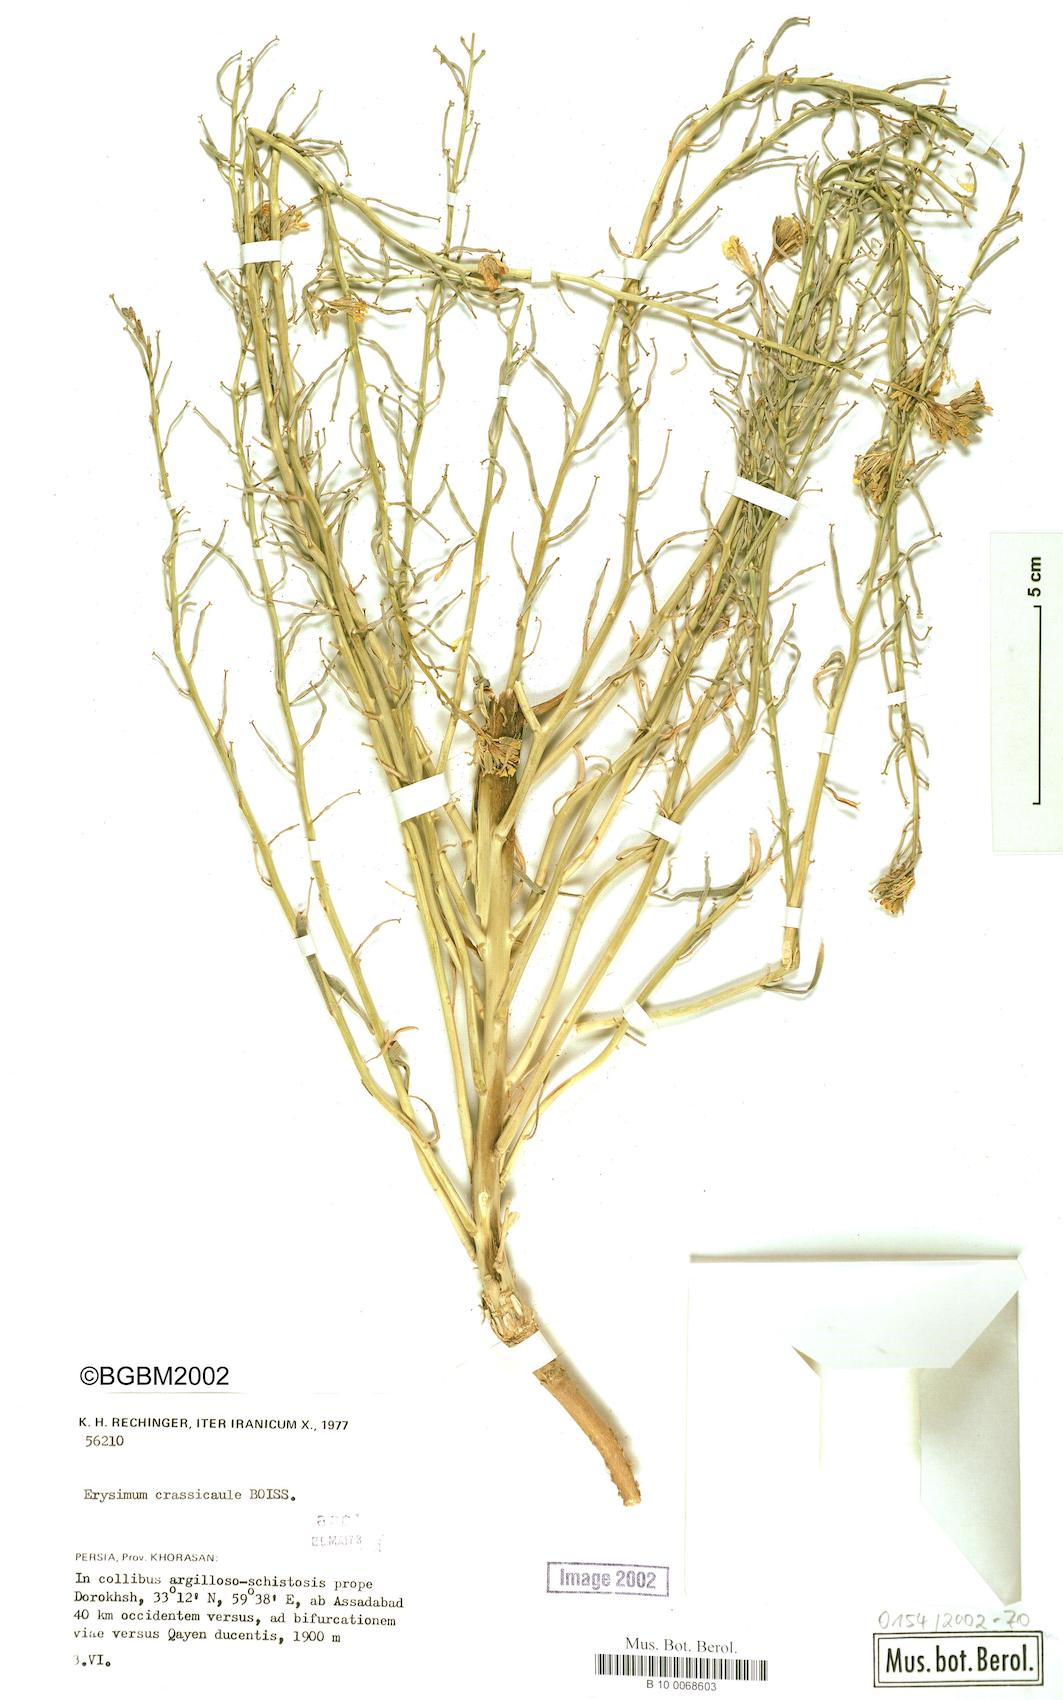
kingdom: Plantae
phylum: Tracheophyta
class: Magnoliopsida
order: Brassicales
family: Brassicaceae
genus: Erysimum
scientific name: Erysimum crassicaule
